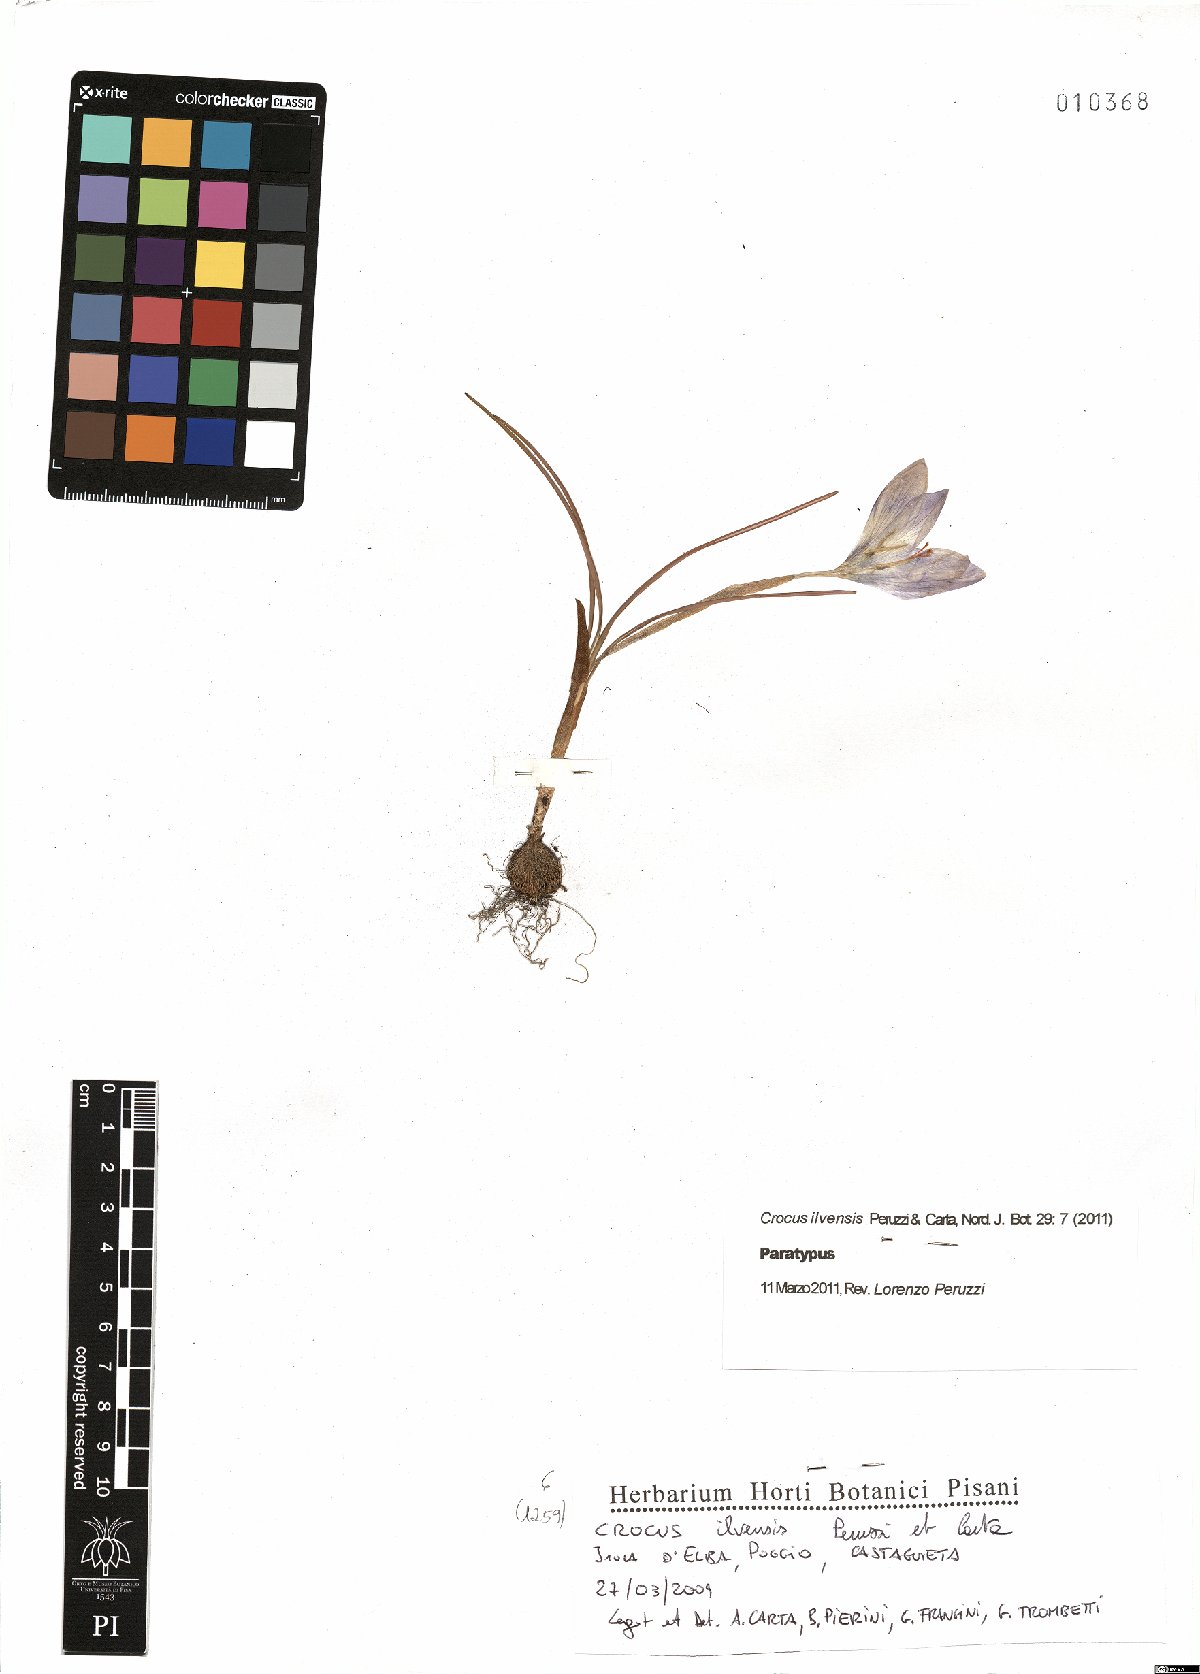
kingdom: Plantae
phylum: Tracheophyta
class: Liliopsida
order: Asparagales
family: Iridaceae
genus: Crocus
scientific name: Crocus ilvensis
